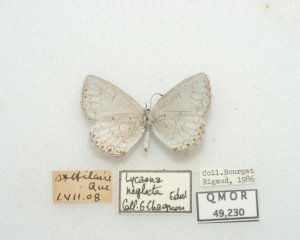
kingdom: Animalia
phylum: Arthropoda
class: Insecta
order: Lepidoptera
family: Lycaenidae
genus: Cyaniris
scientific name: Cyaniris neglecta
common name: Summer Azure
